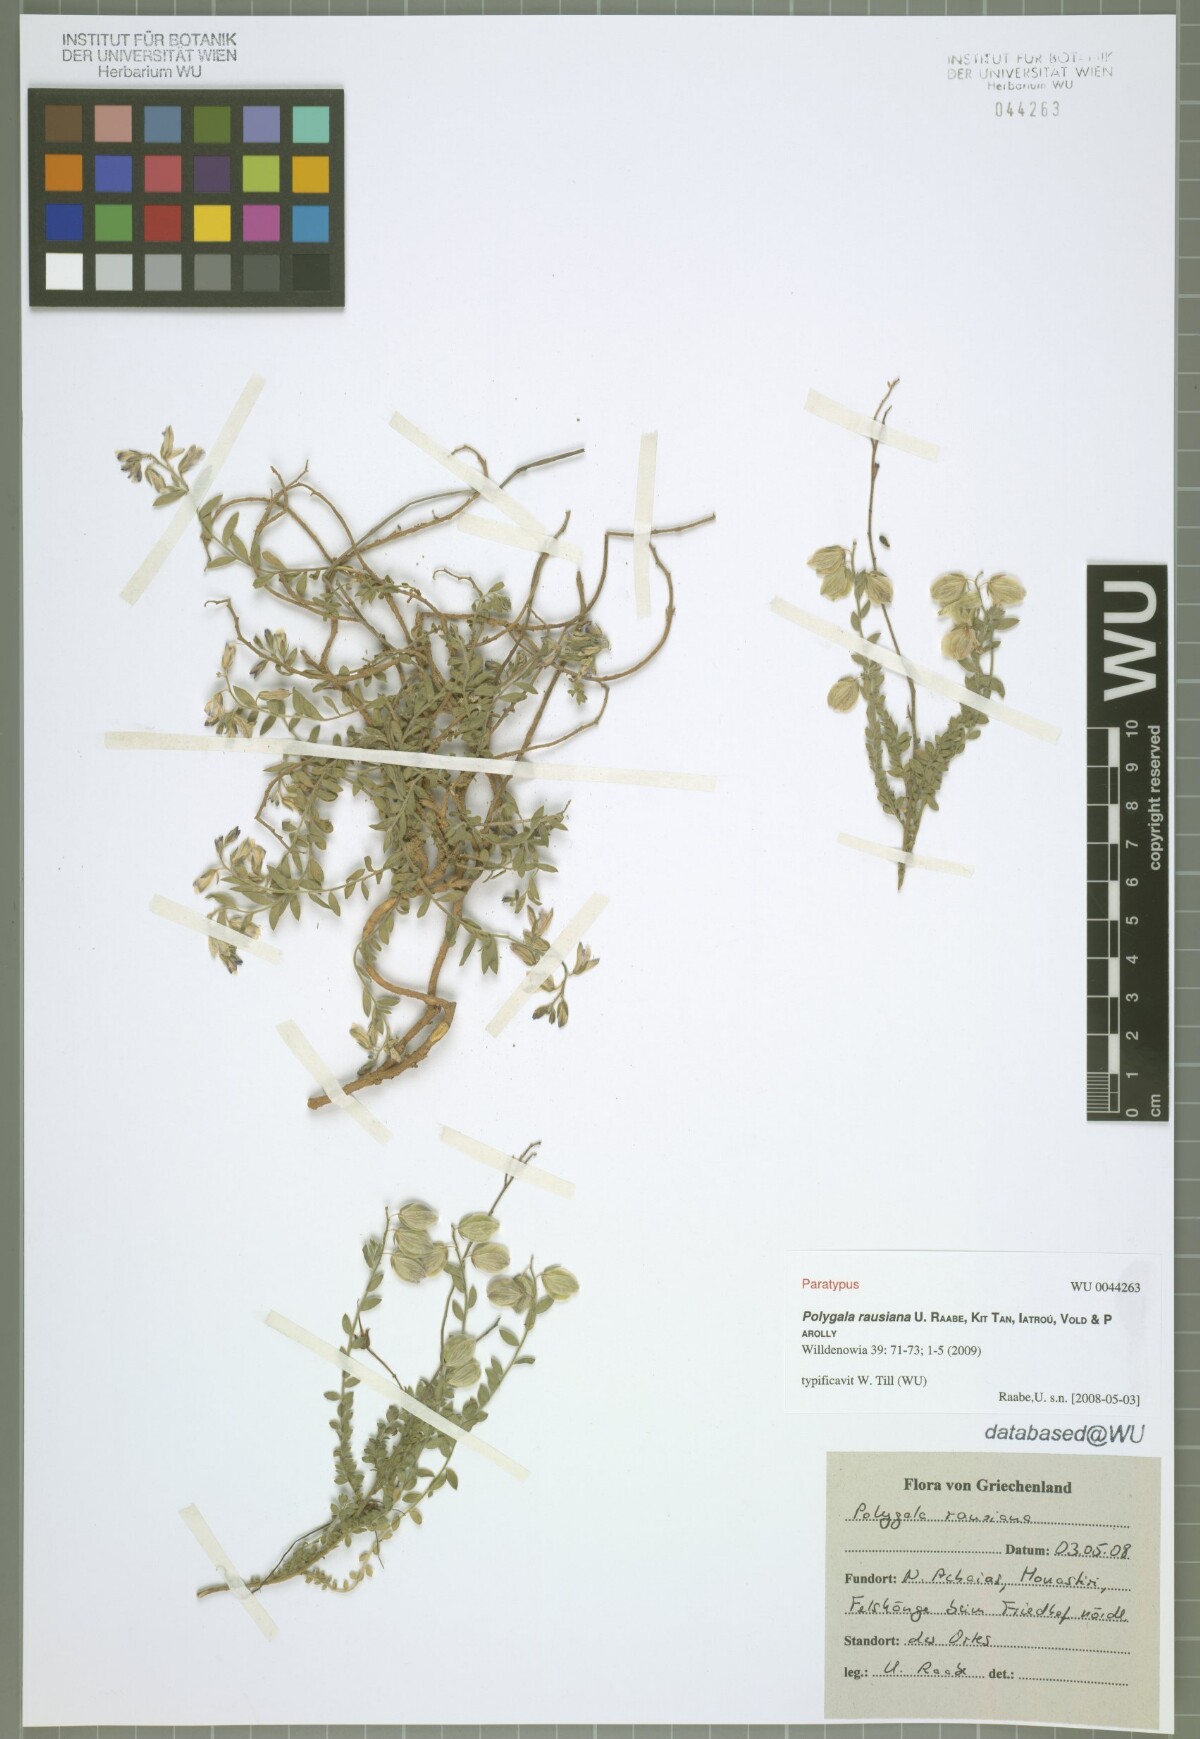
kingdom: Plantae
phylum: Tracheophyta
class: Magnoliopsida
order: Fabales
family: Polygalaceae
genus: Polygala
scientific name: Polygala rausiana
